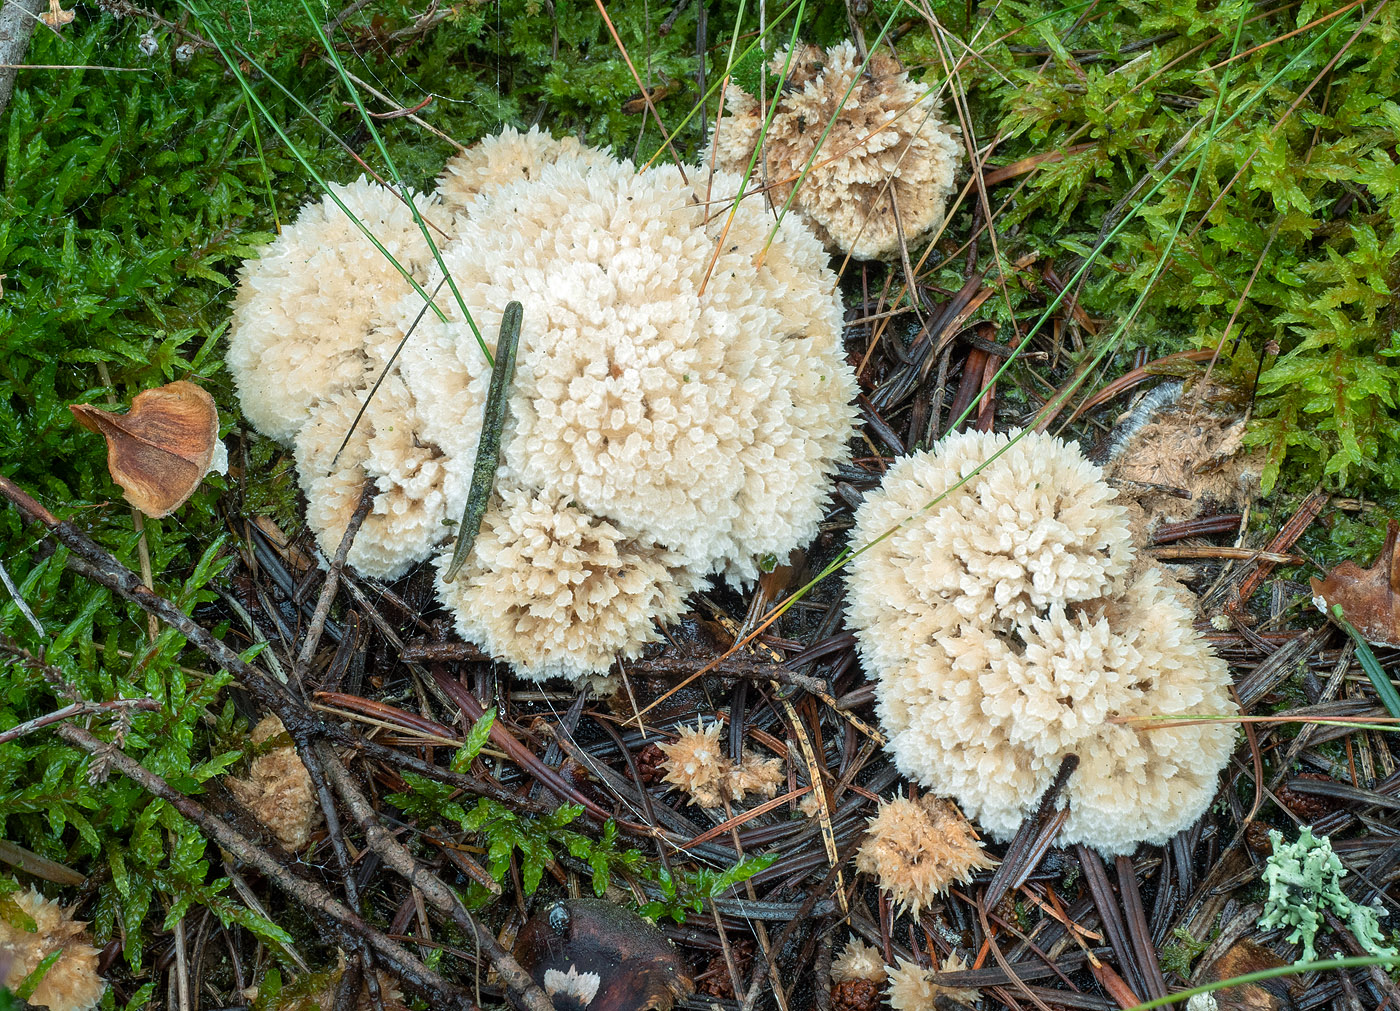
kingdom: Fungi
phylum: Basidiomycota
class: Agaricomycetes
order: Polyporales
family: Dacryobolaceae
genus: Postia
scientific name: Postia ptychogaster
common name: støvende kødporesvamp
